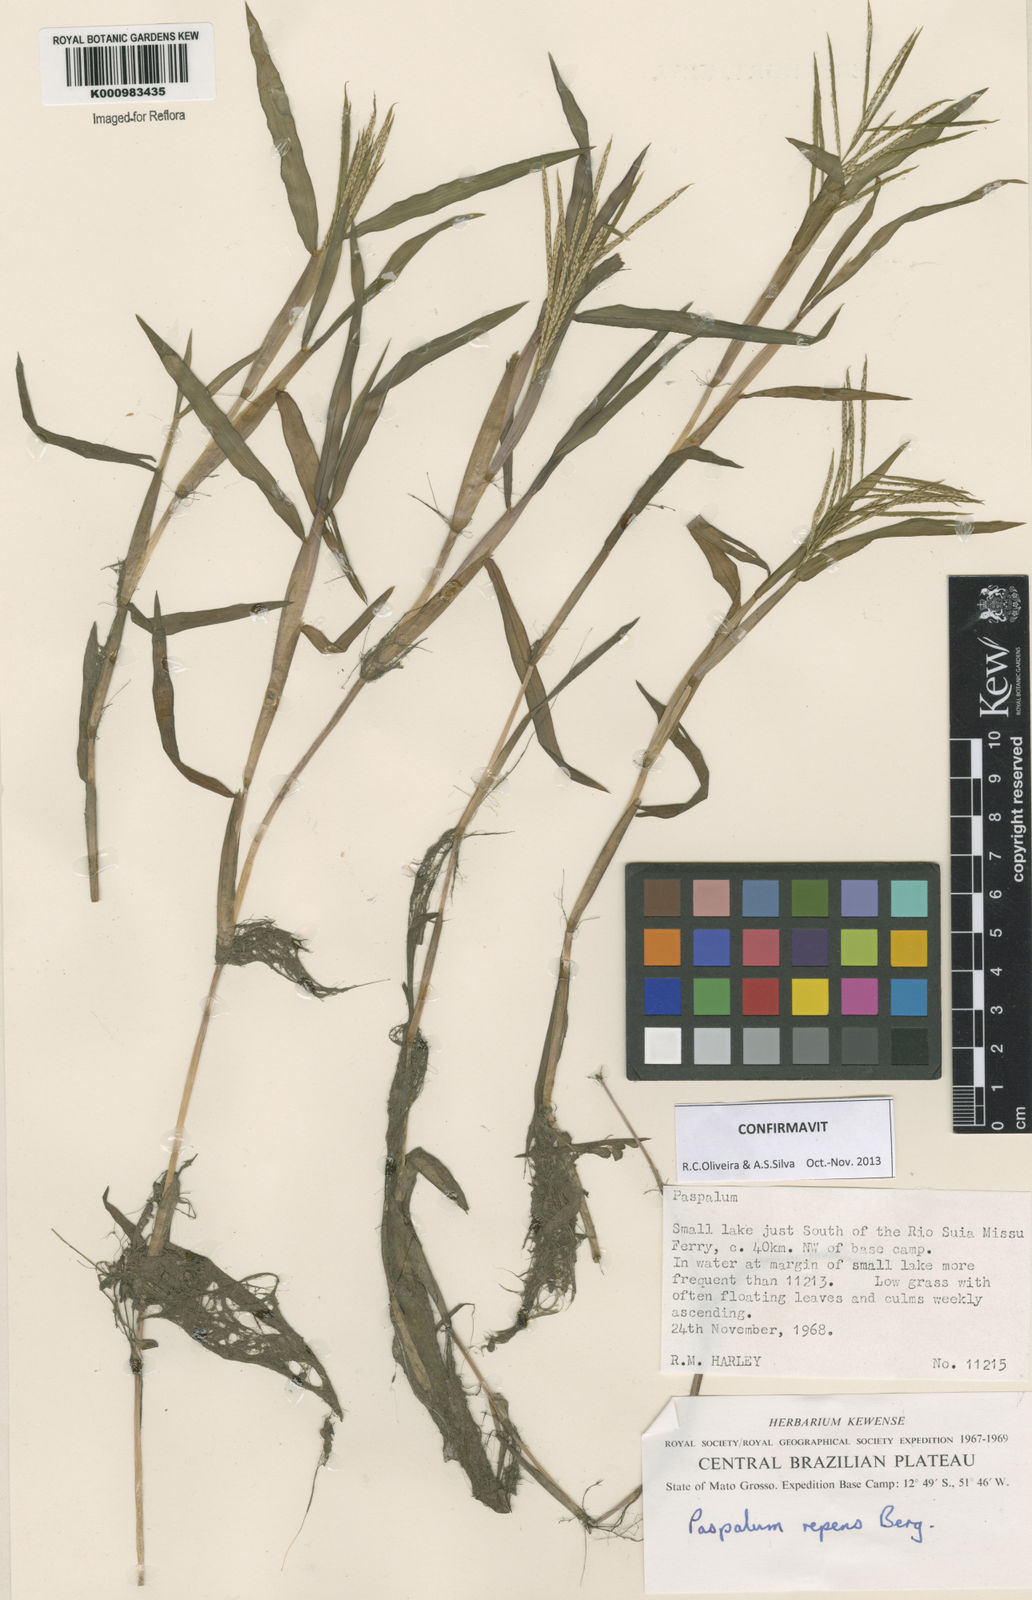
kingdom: Plantae
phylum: Tracheophyta
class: Liliopsida
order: Poales
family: Poaceae
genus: Paspalum
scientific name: Paspalum repens
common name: Water paspalum
